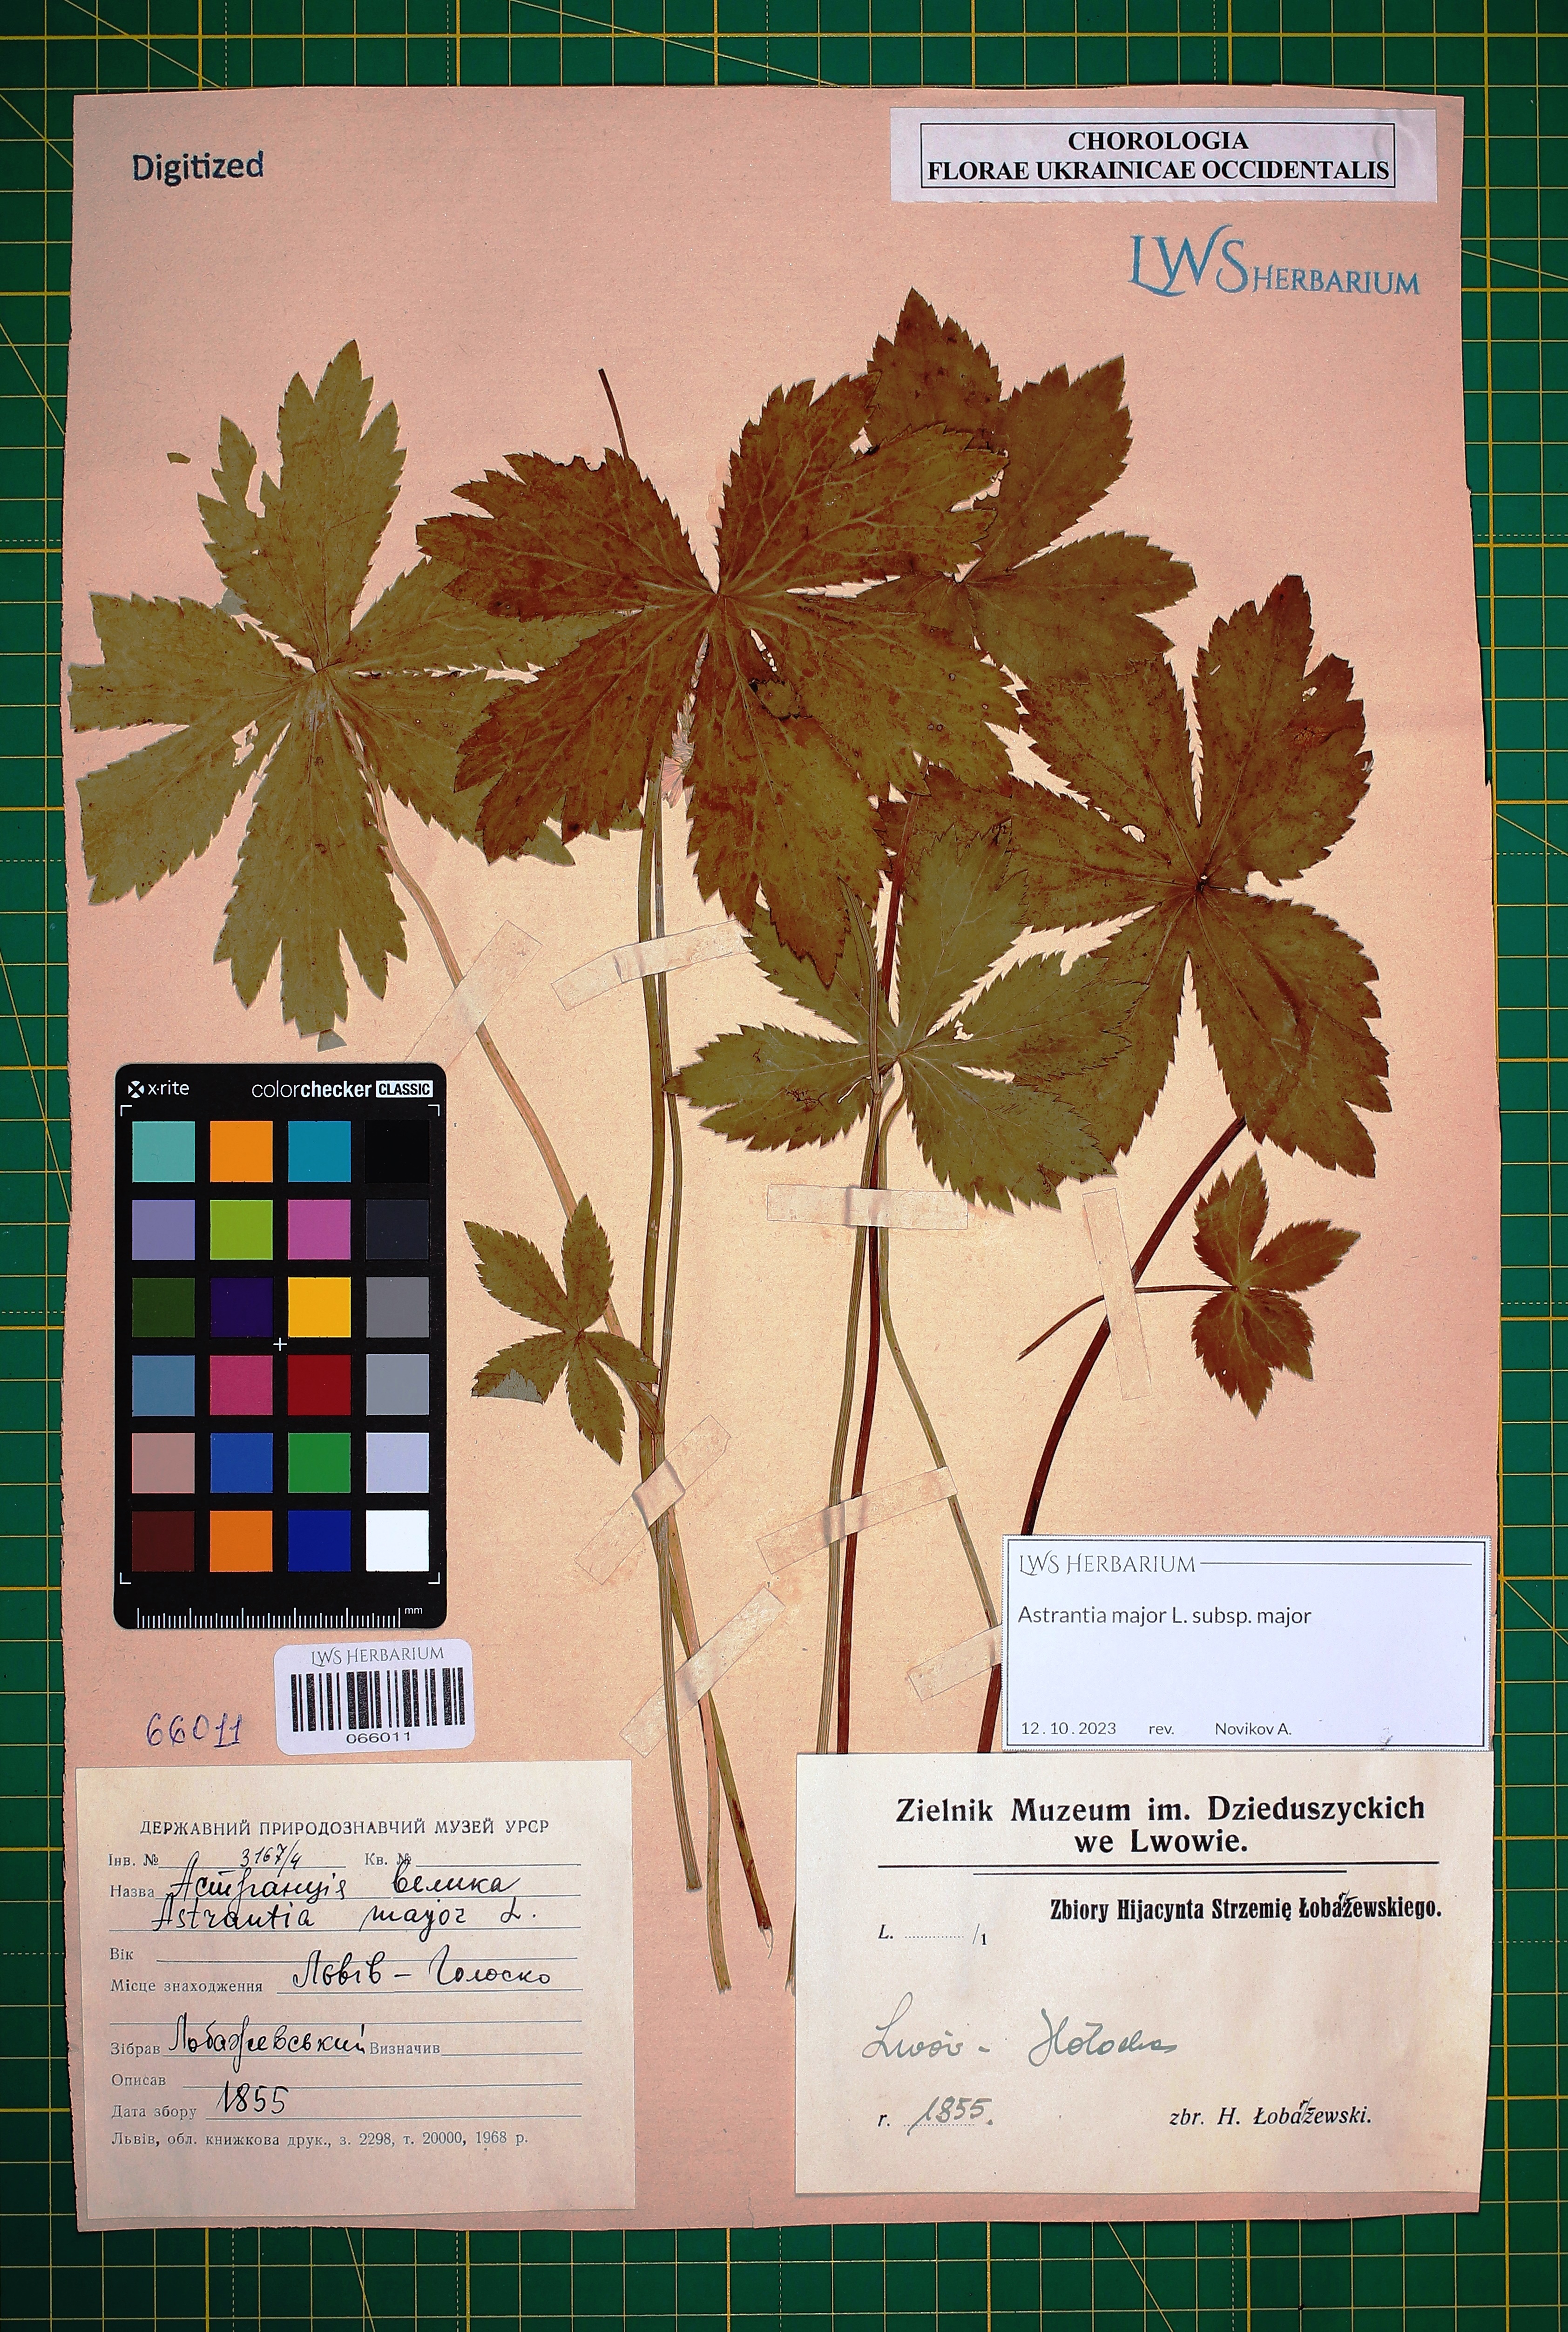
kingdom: Plantae
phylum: Tracheophyta
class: Magnoliopsida
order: Apiales
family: Apiaceae
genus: Astrantia
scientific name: Astrantia major
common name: Greater masterwort
